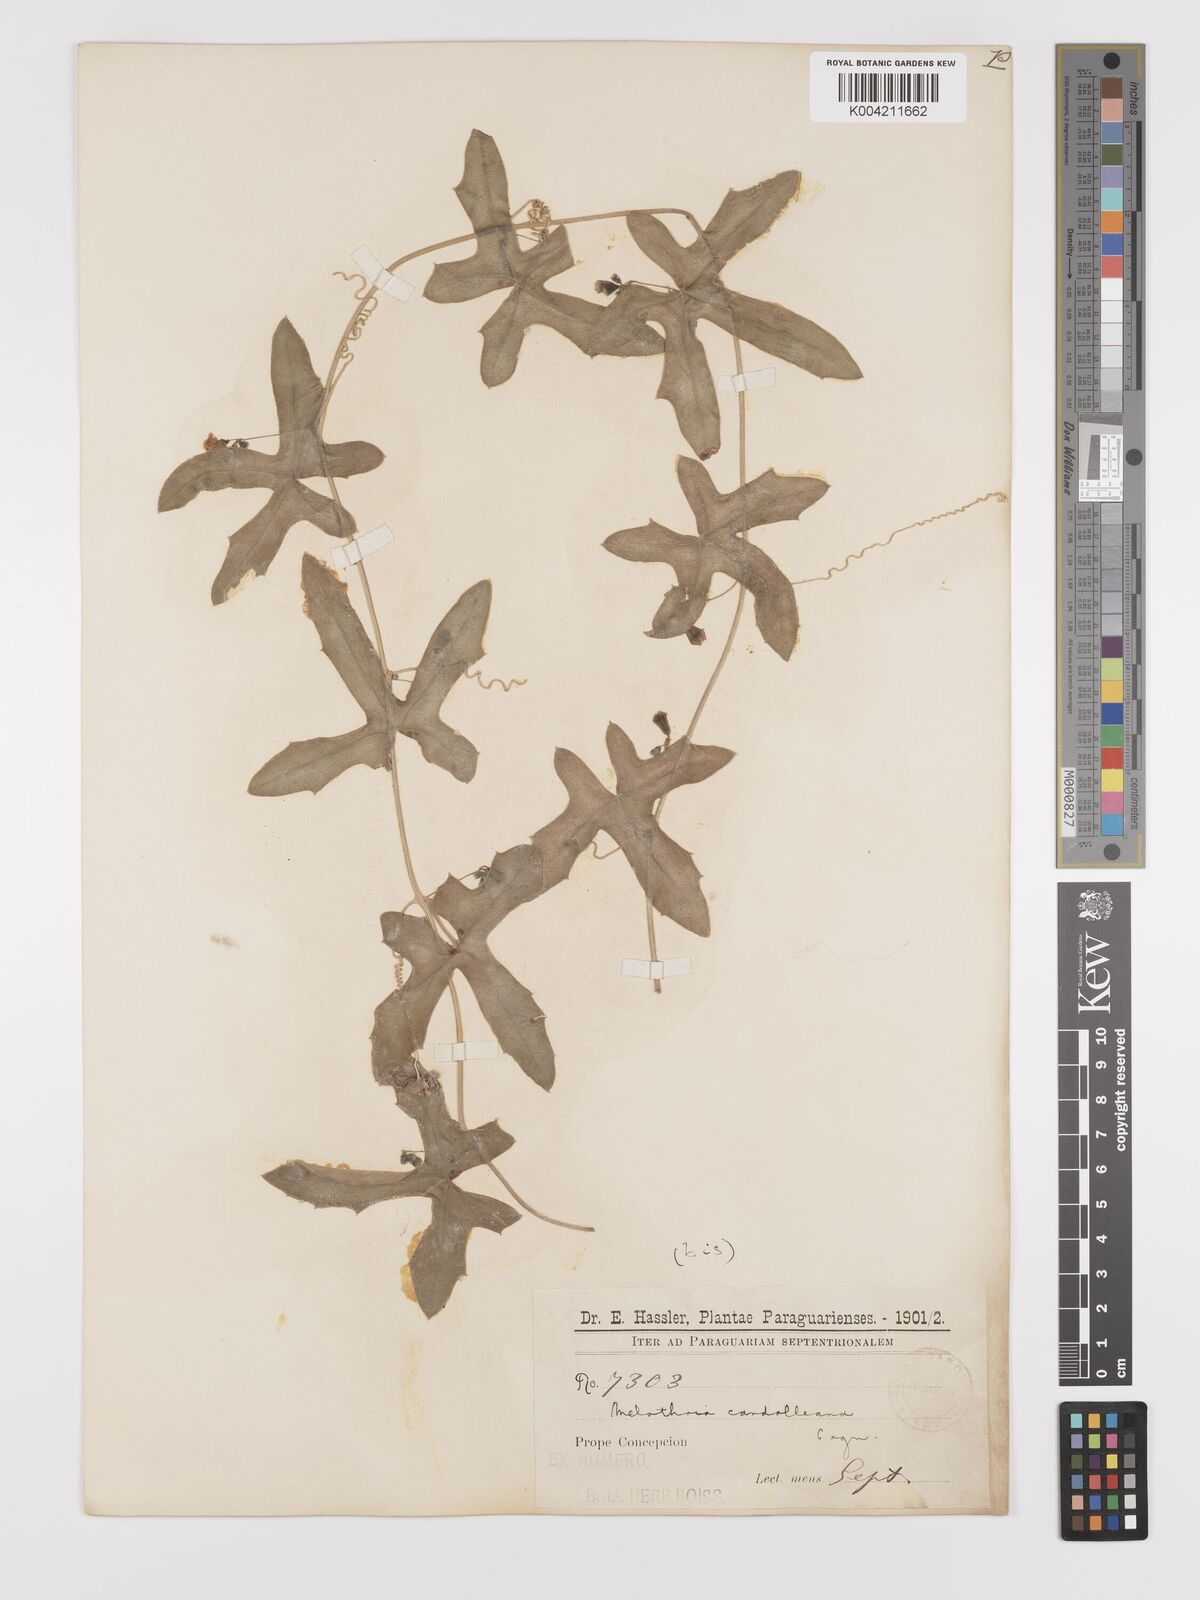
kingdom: Plantae
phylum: Tracheophyta
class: Magnoliopsida
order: Cucurbitales
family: Cucurbitaceae
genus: Melothria
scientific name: Melothria candolleana
